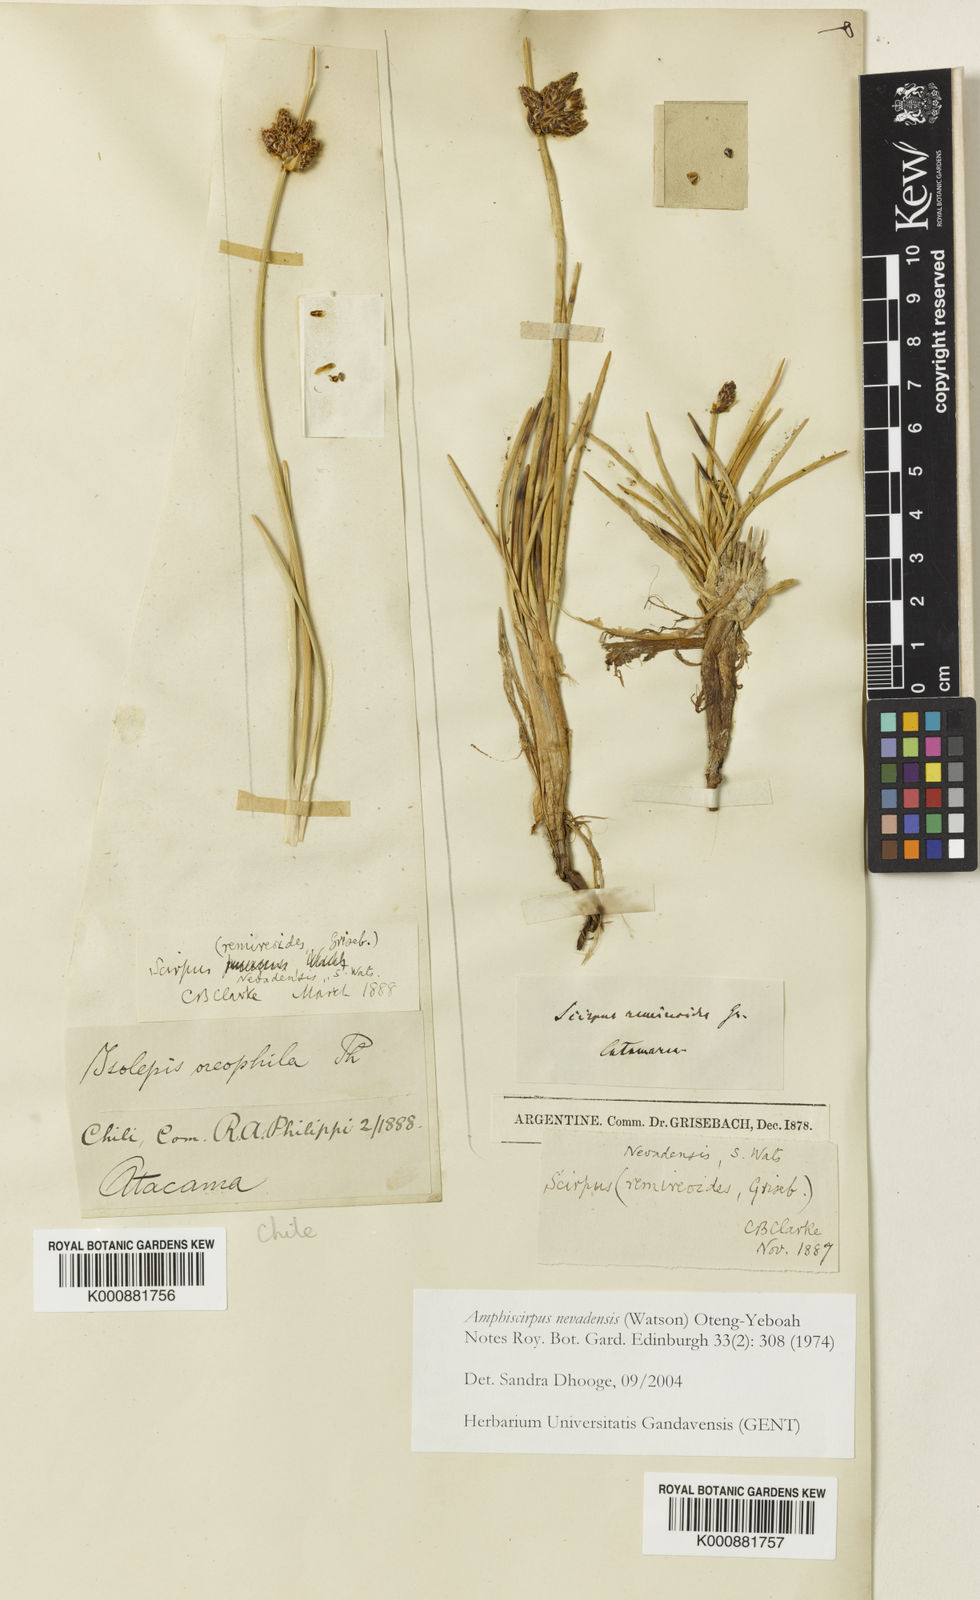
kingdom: Plantae
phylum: Tracheophyta
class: Liliopsida
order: Poales
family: Cyperaceae
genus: Amphiscirpus
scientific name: Amphiscirpus nevadensis
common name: Nevada bulrush
